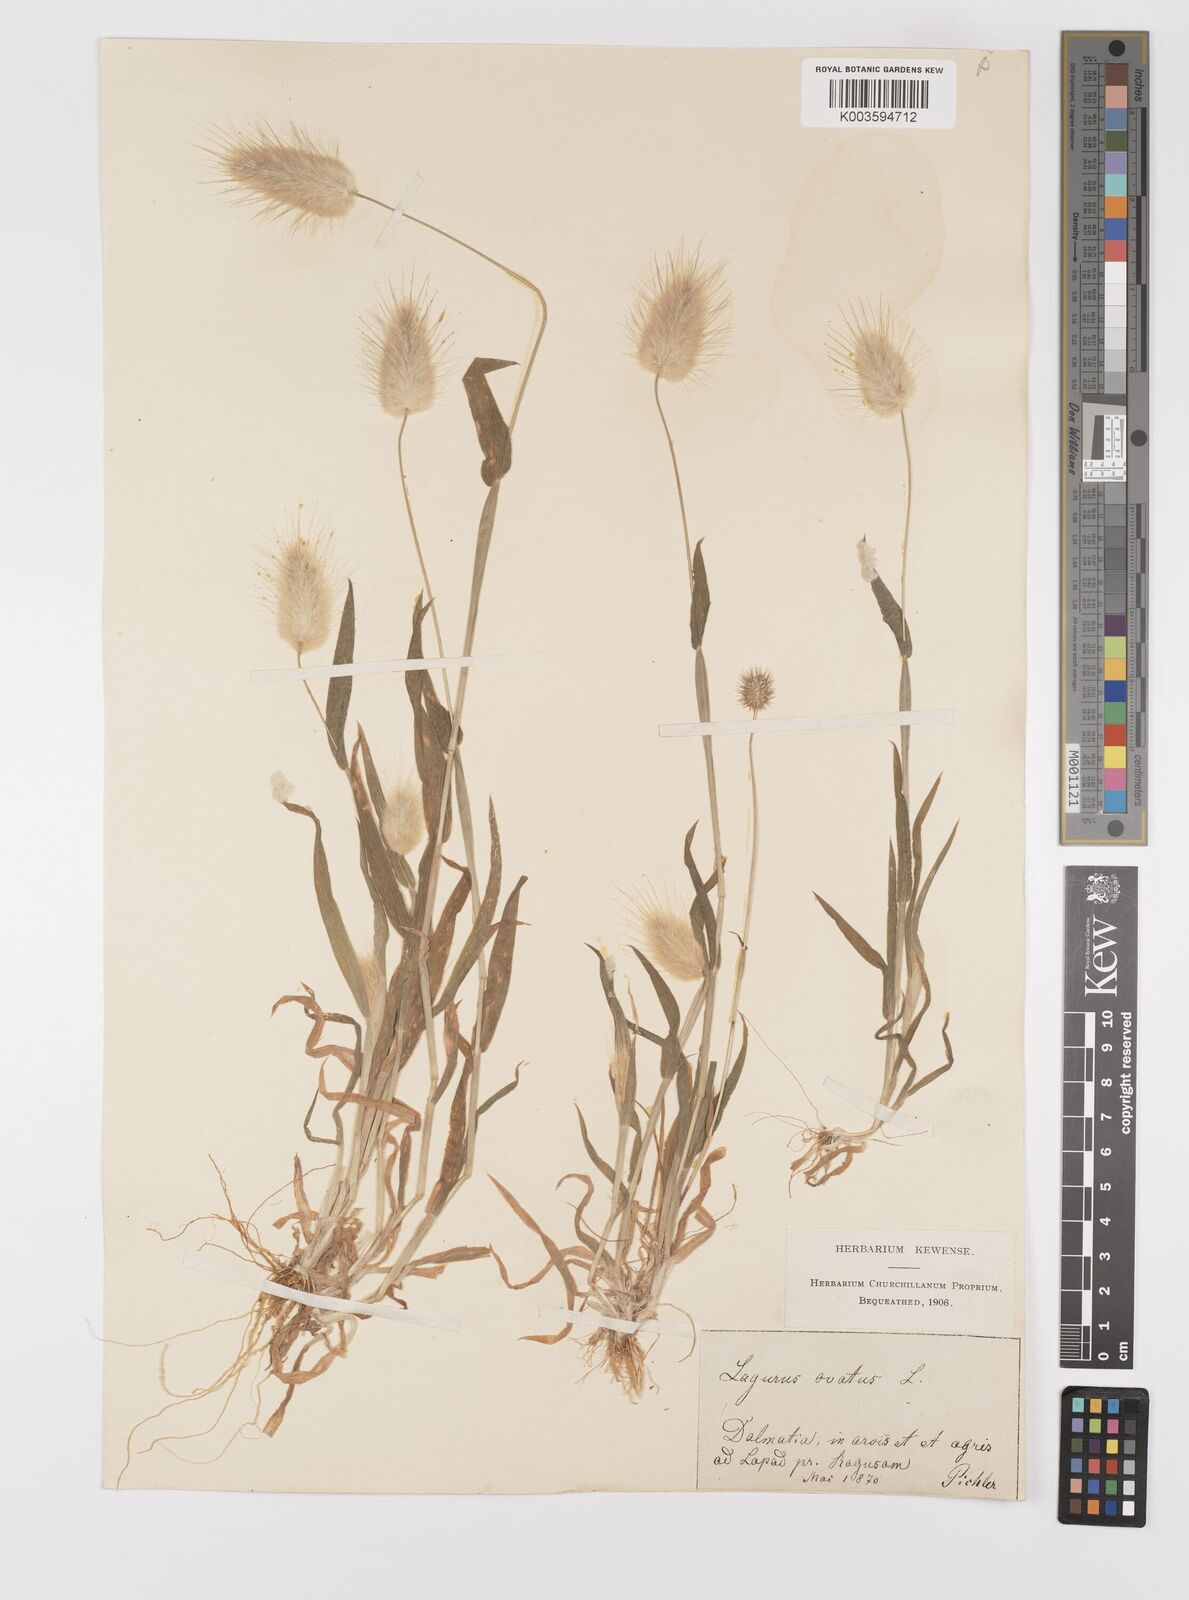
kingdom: Plantae
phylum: Tracheophyta
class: Liliopsida
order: Poales
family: Poaceae
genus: Lagurus
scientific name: Lagurus ovatus
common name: Hare's-tail
